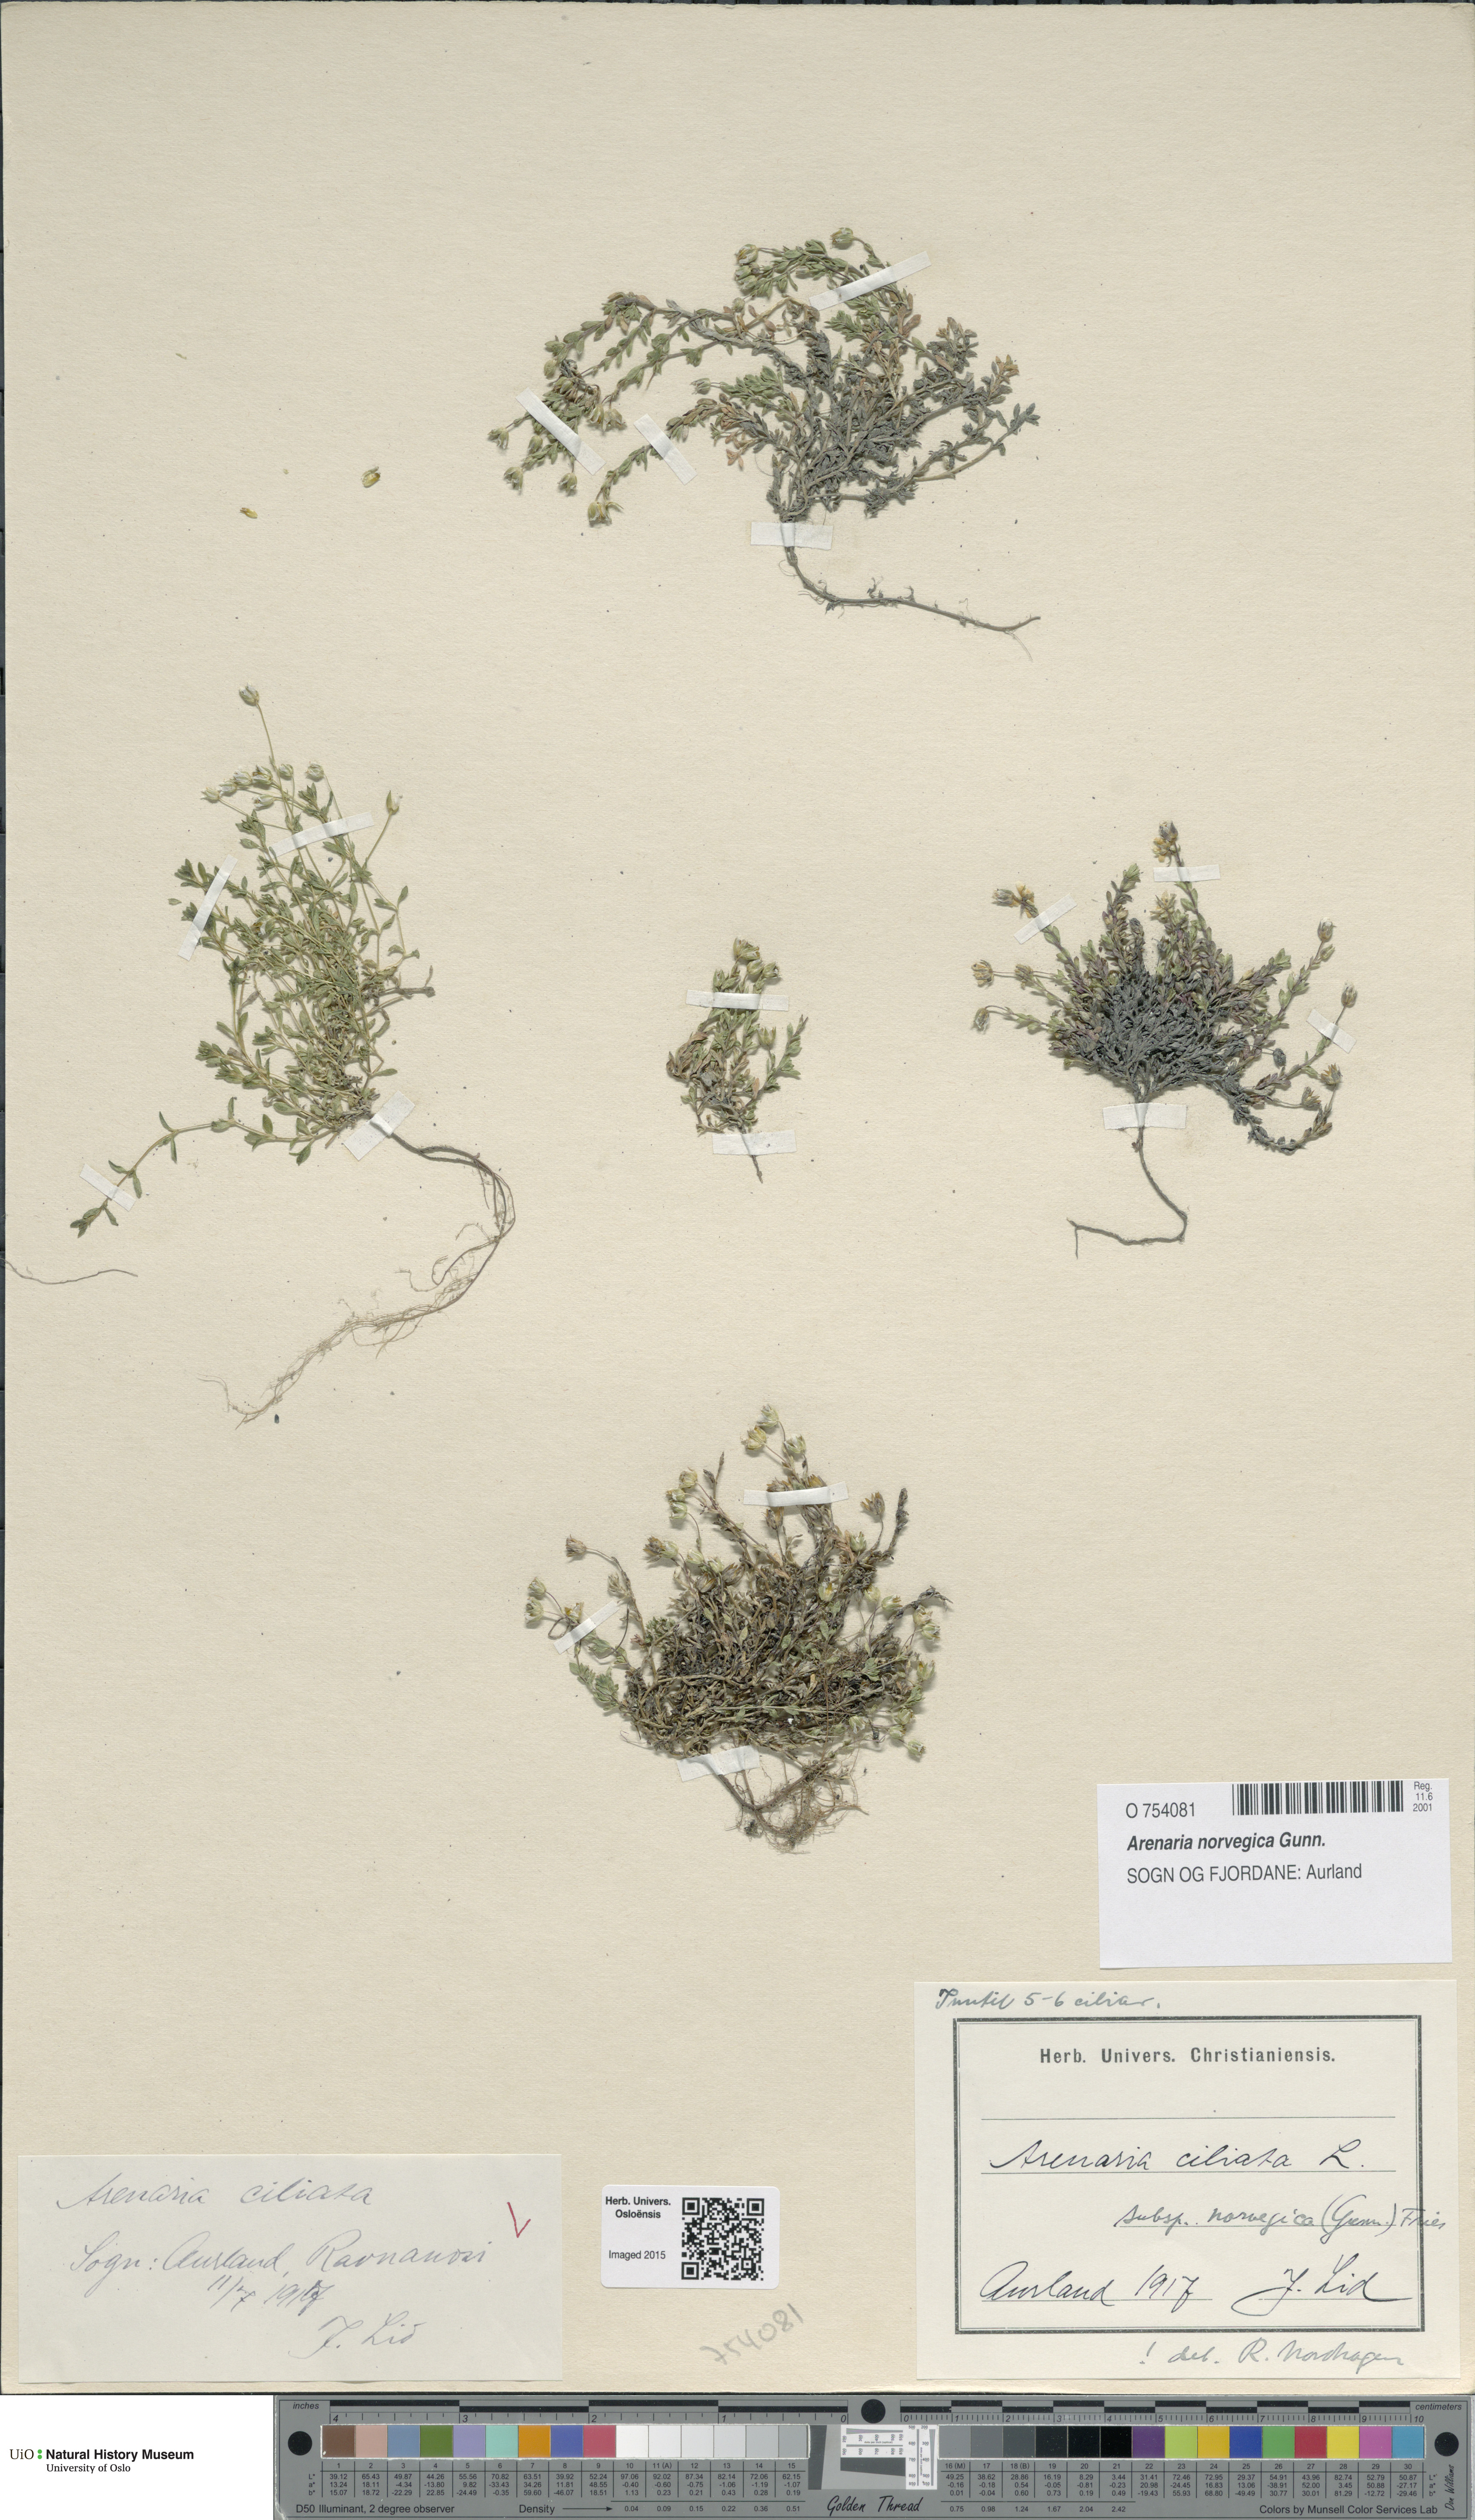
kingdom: Plantae
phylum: Tracheophyta
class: Magnoliopsida
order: Caryophyllales
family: Caryophyllaceae
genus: Arenaria
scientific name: Arenaria norvegica
